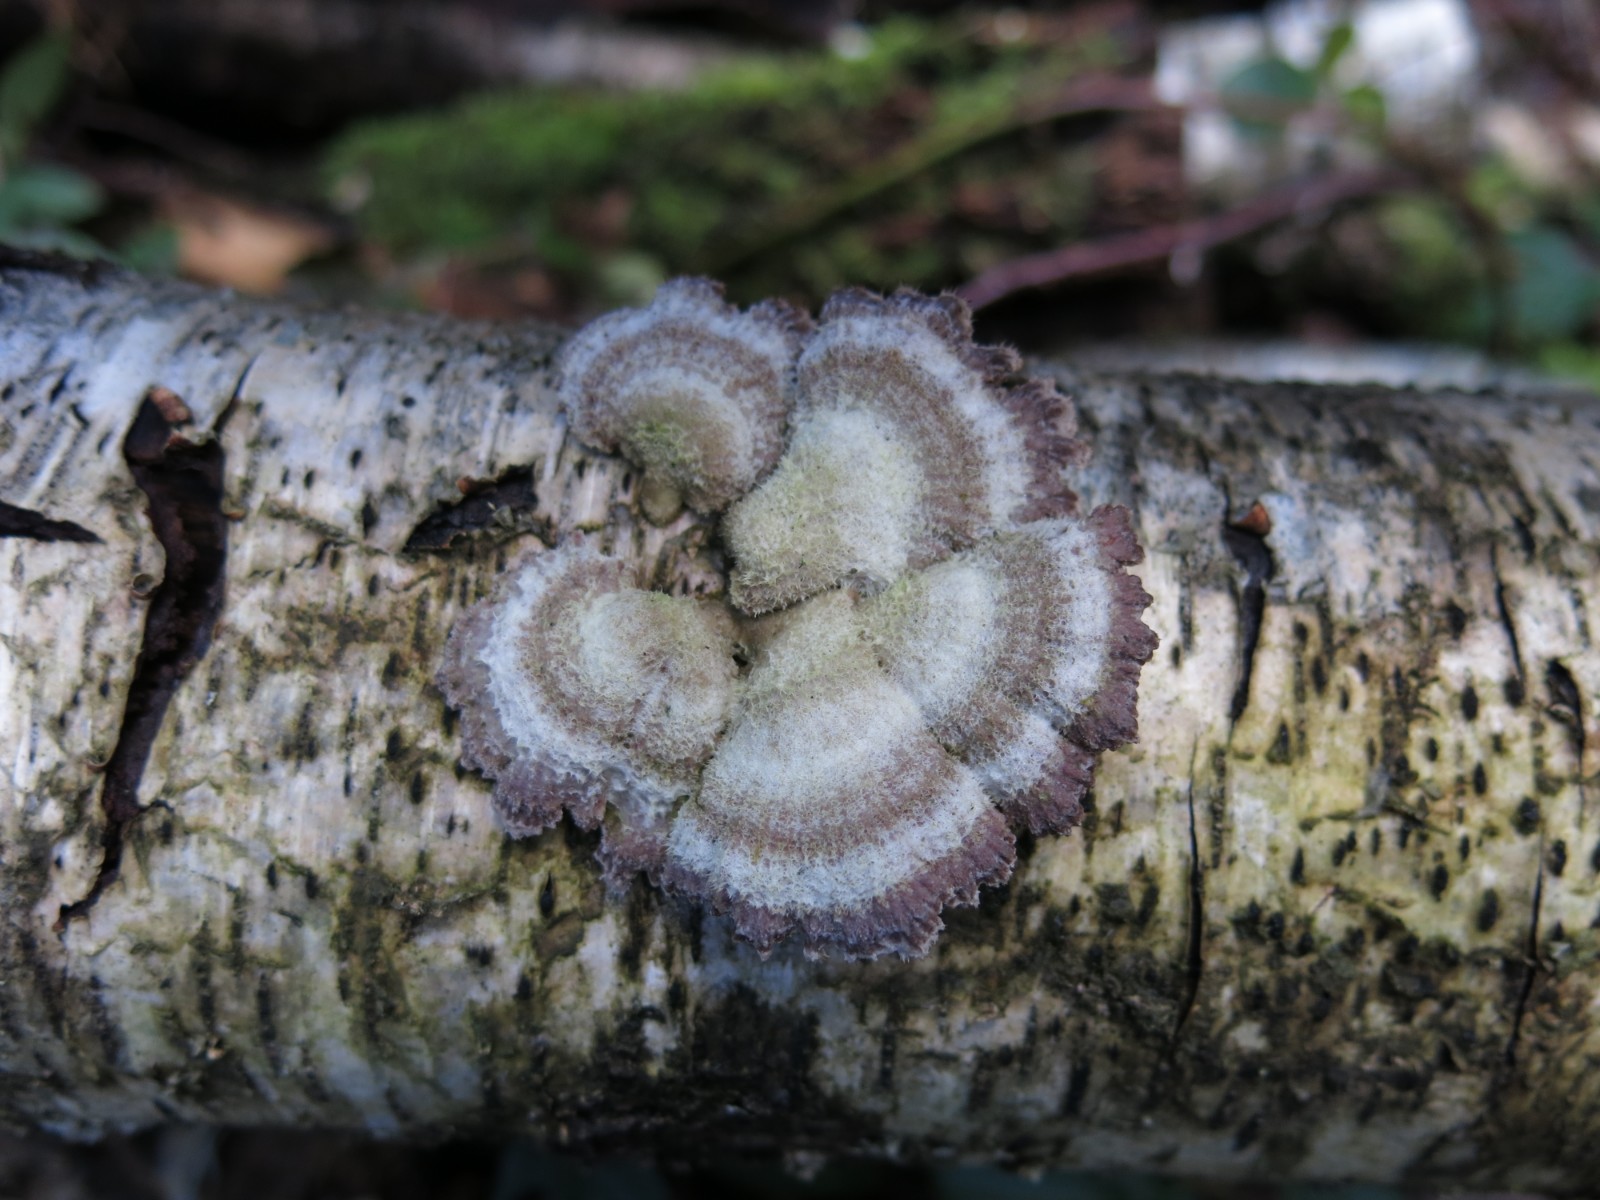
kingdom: Fungi
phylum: Basidiomycota
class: Agaricomycetes
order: Agaricales
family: Schizophyllaceae
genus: Schizophyllum
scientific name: Schizophyllum commune
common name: kløvblad
